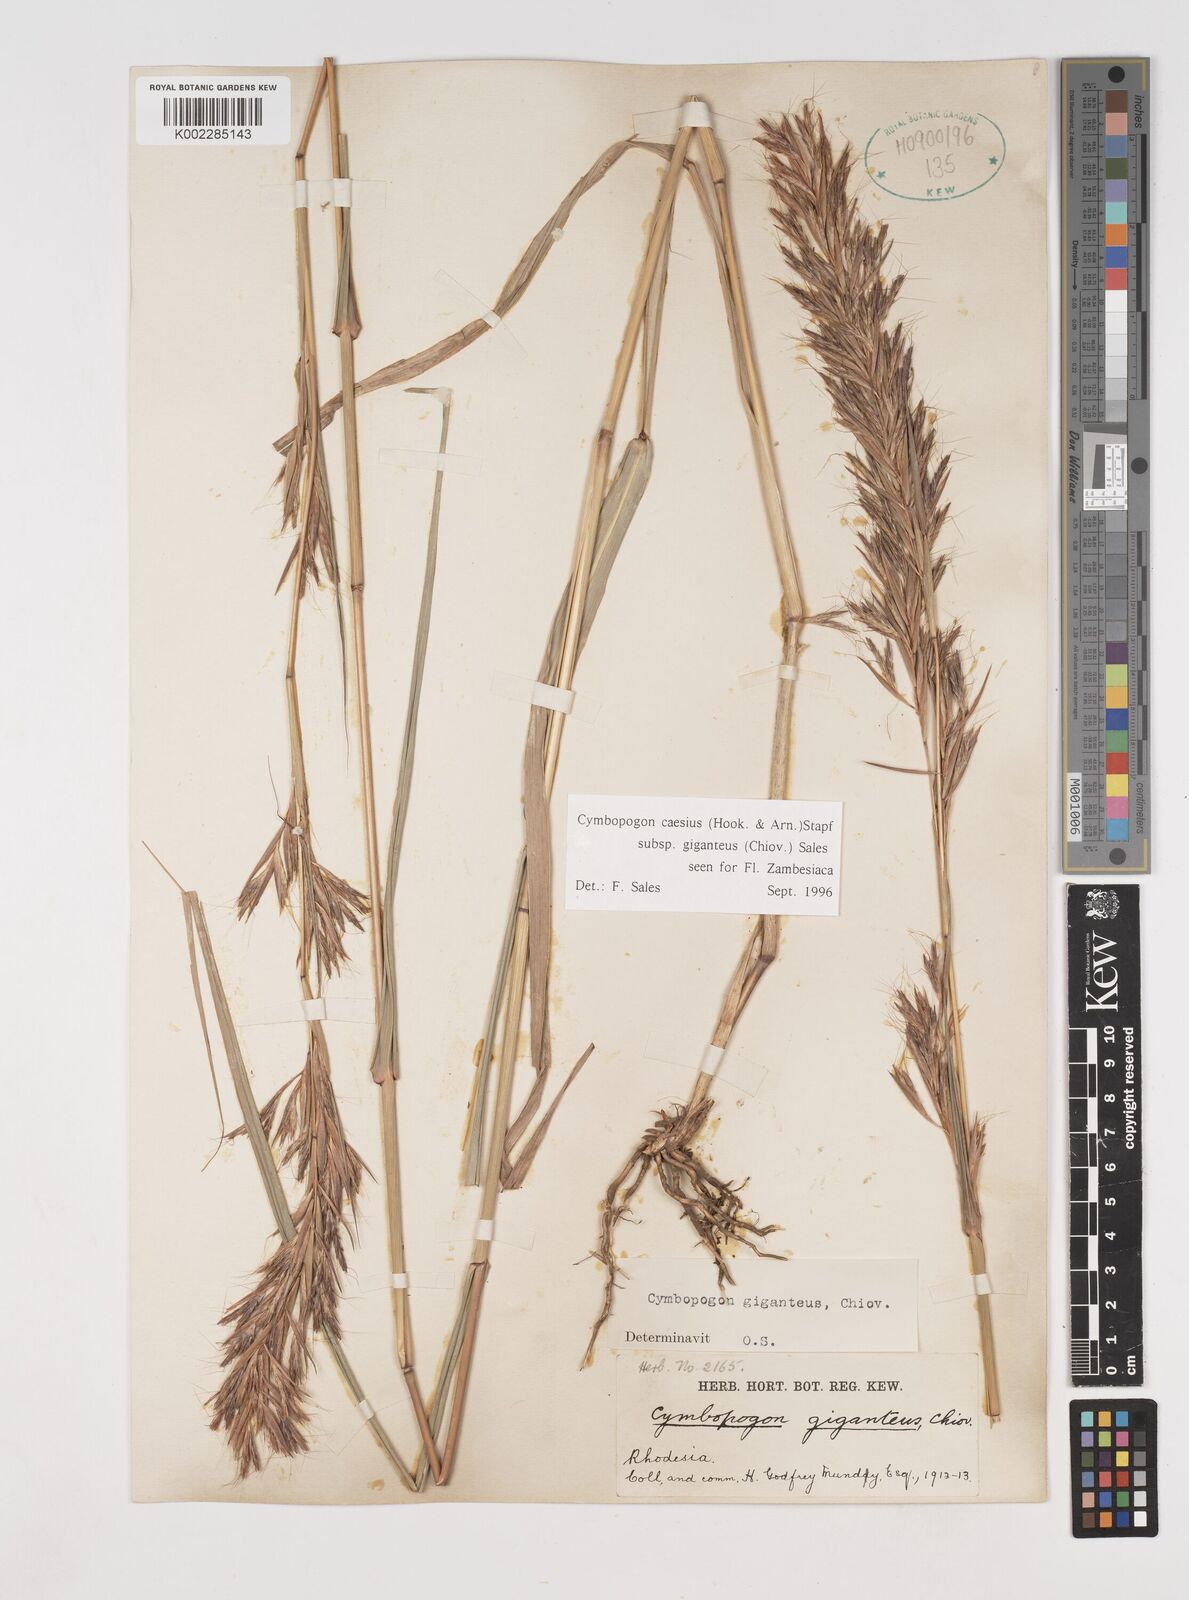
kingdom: Plantae
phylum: Tracheophyta
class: Liliopsida
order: Poales
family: Poaceae
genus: Cymbopogon
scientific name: Cymbopogon giganteus
